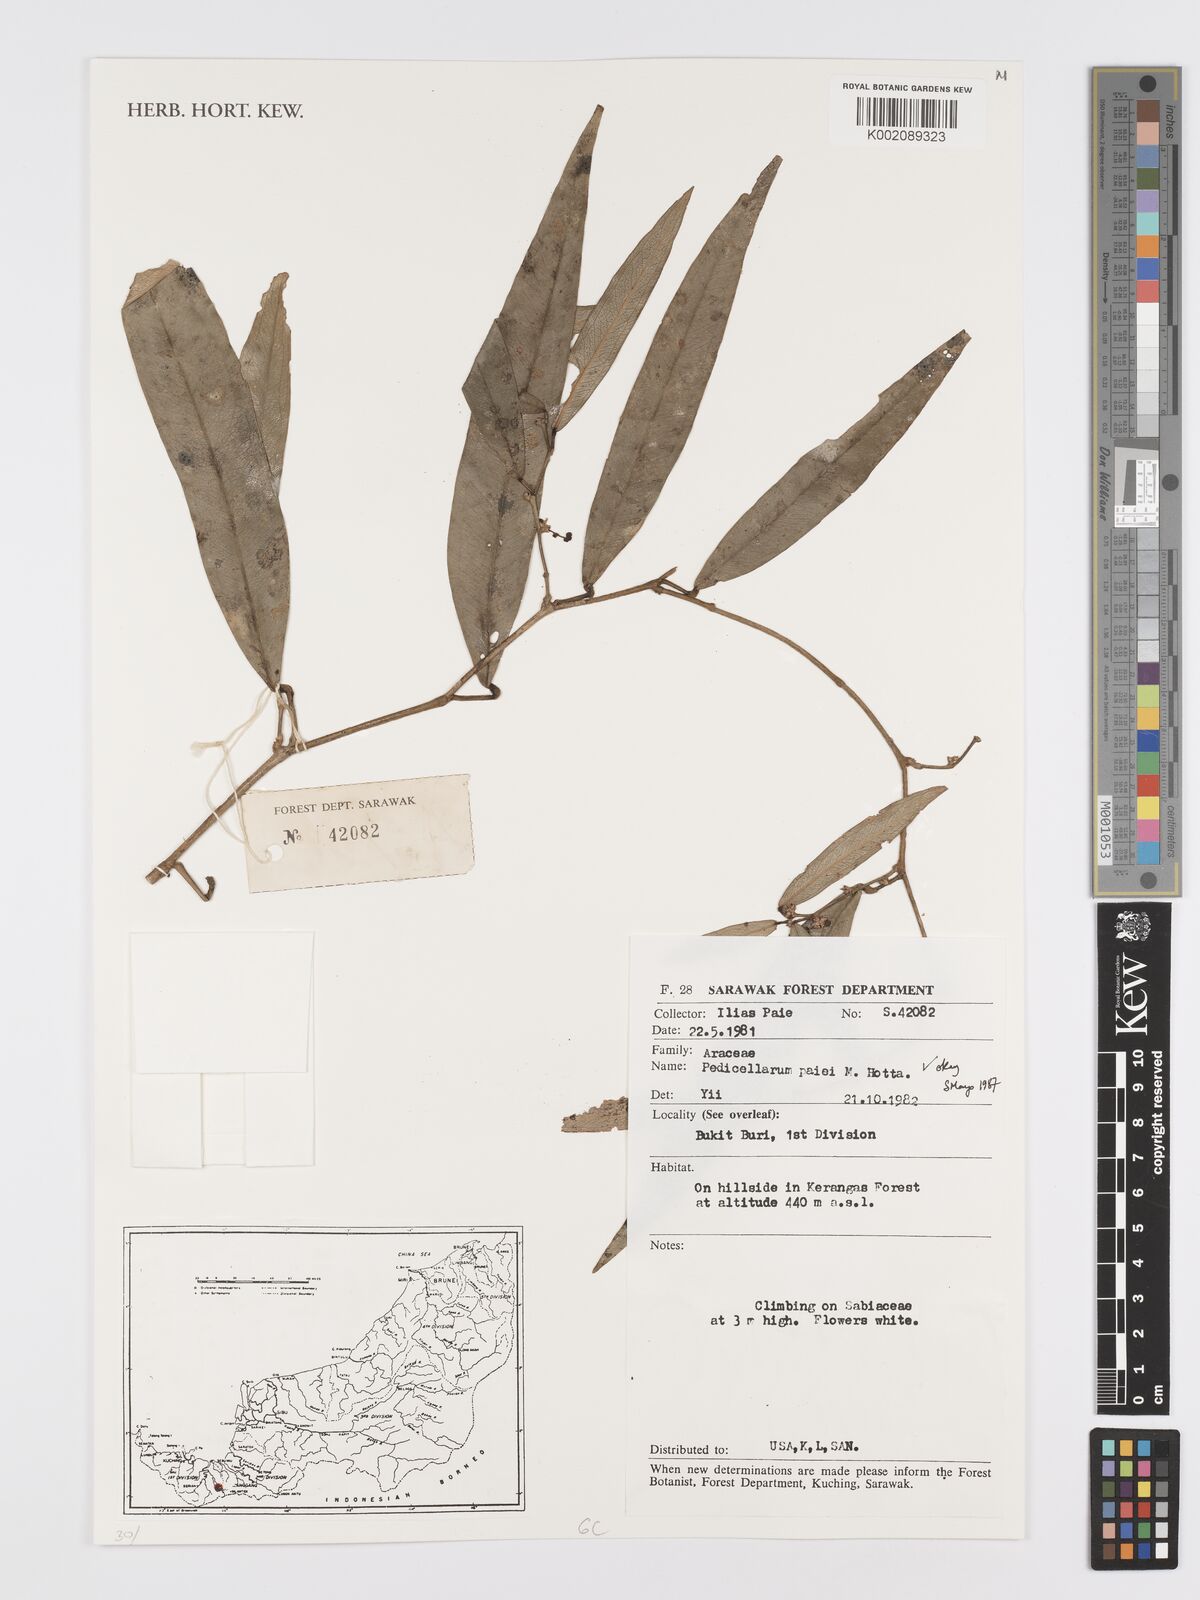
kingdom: Plantae
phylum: Tracheophyta
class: Liliopsida
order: Alismatales
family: Araceae
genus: Pothos
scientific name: Pothos paiei
